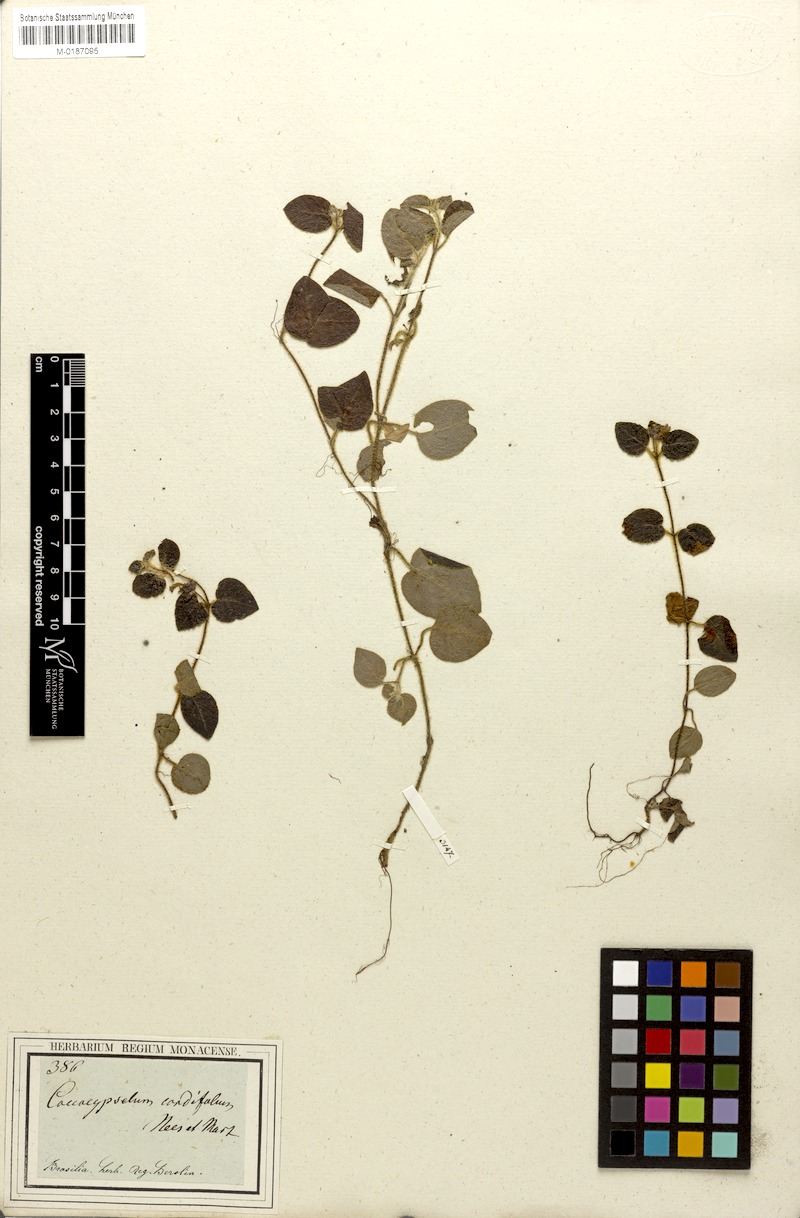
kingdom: Plantae
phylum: Tracheophyta
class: Magnoliopsida
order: Gentianales
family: Rubiaceae
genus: Coccocypselum
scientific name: Coccocypselum cordifolium
